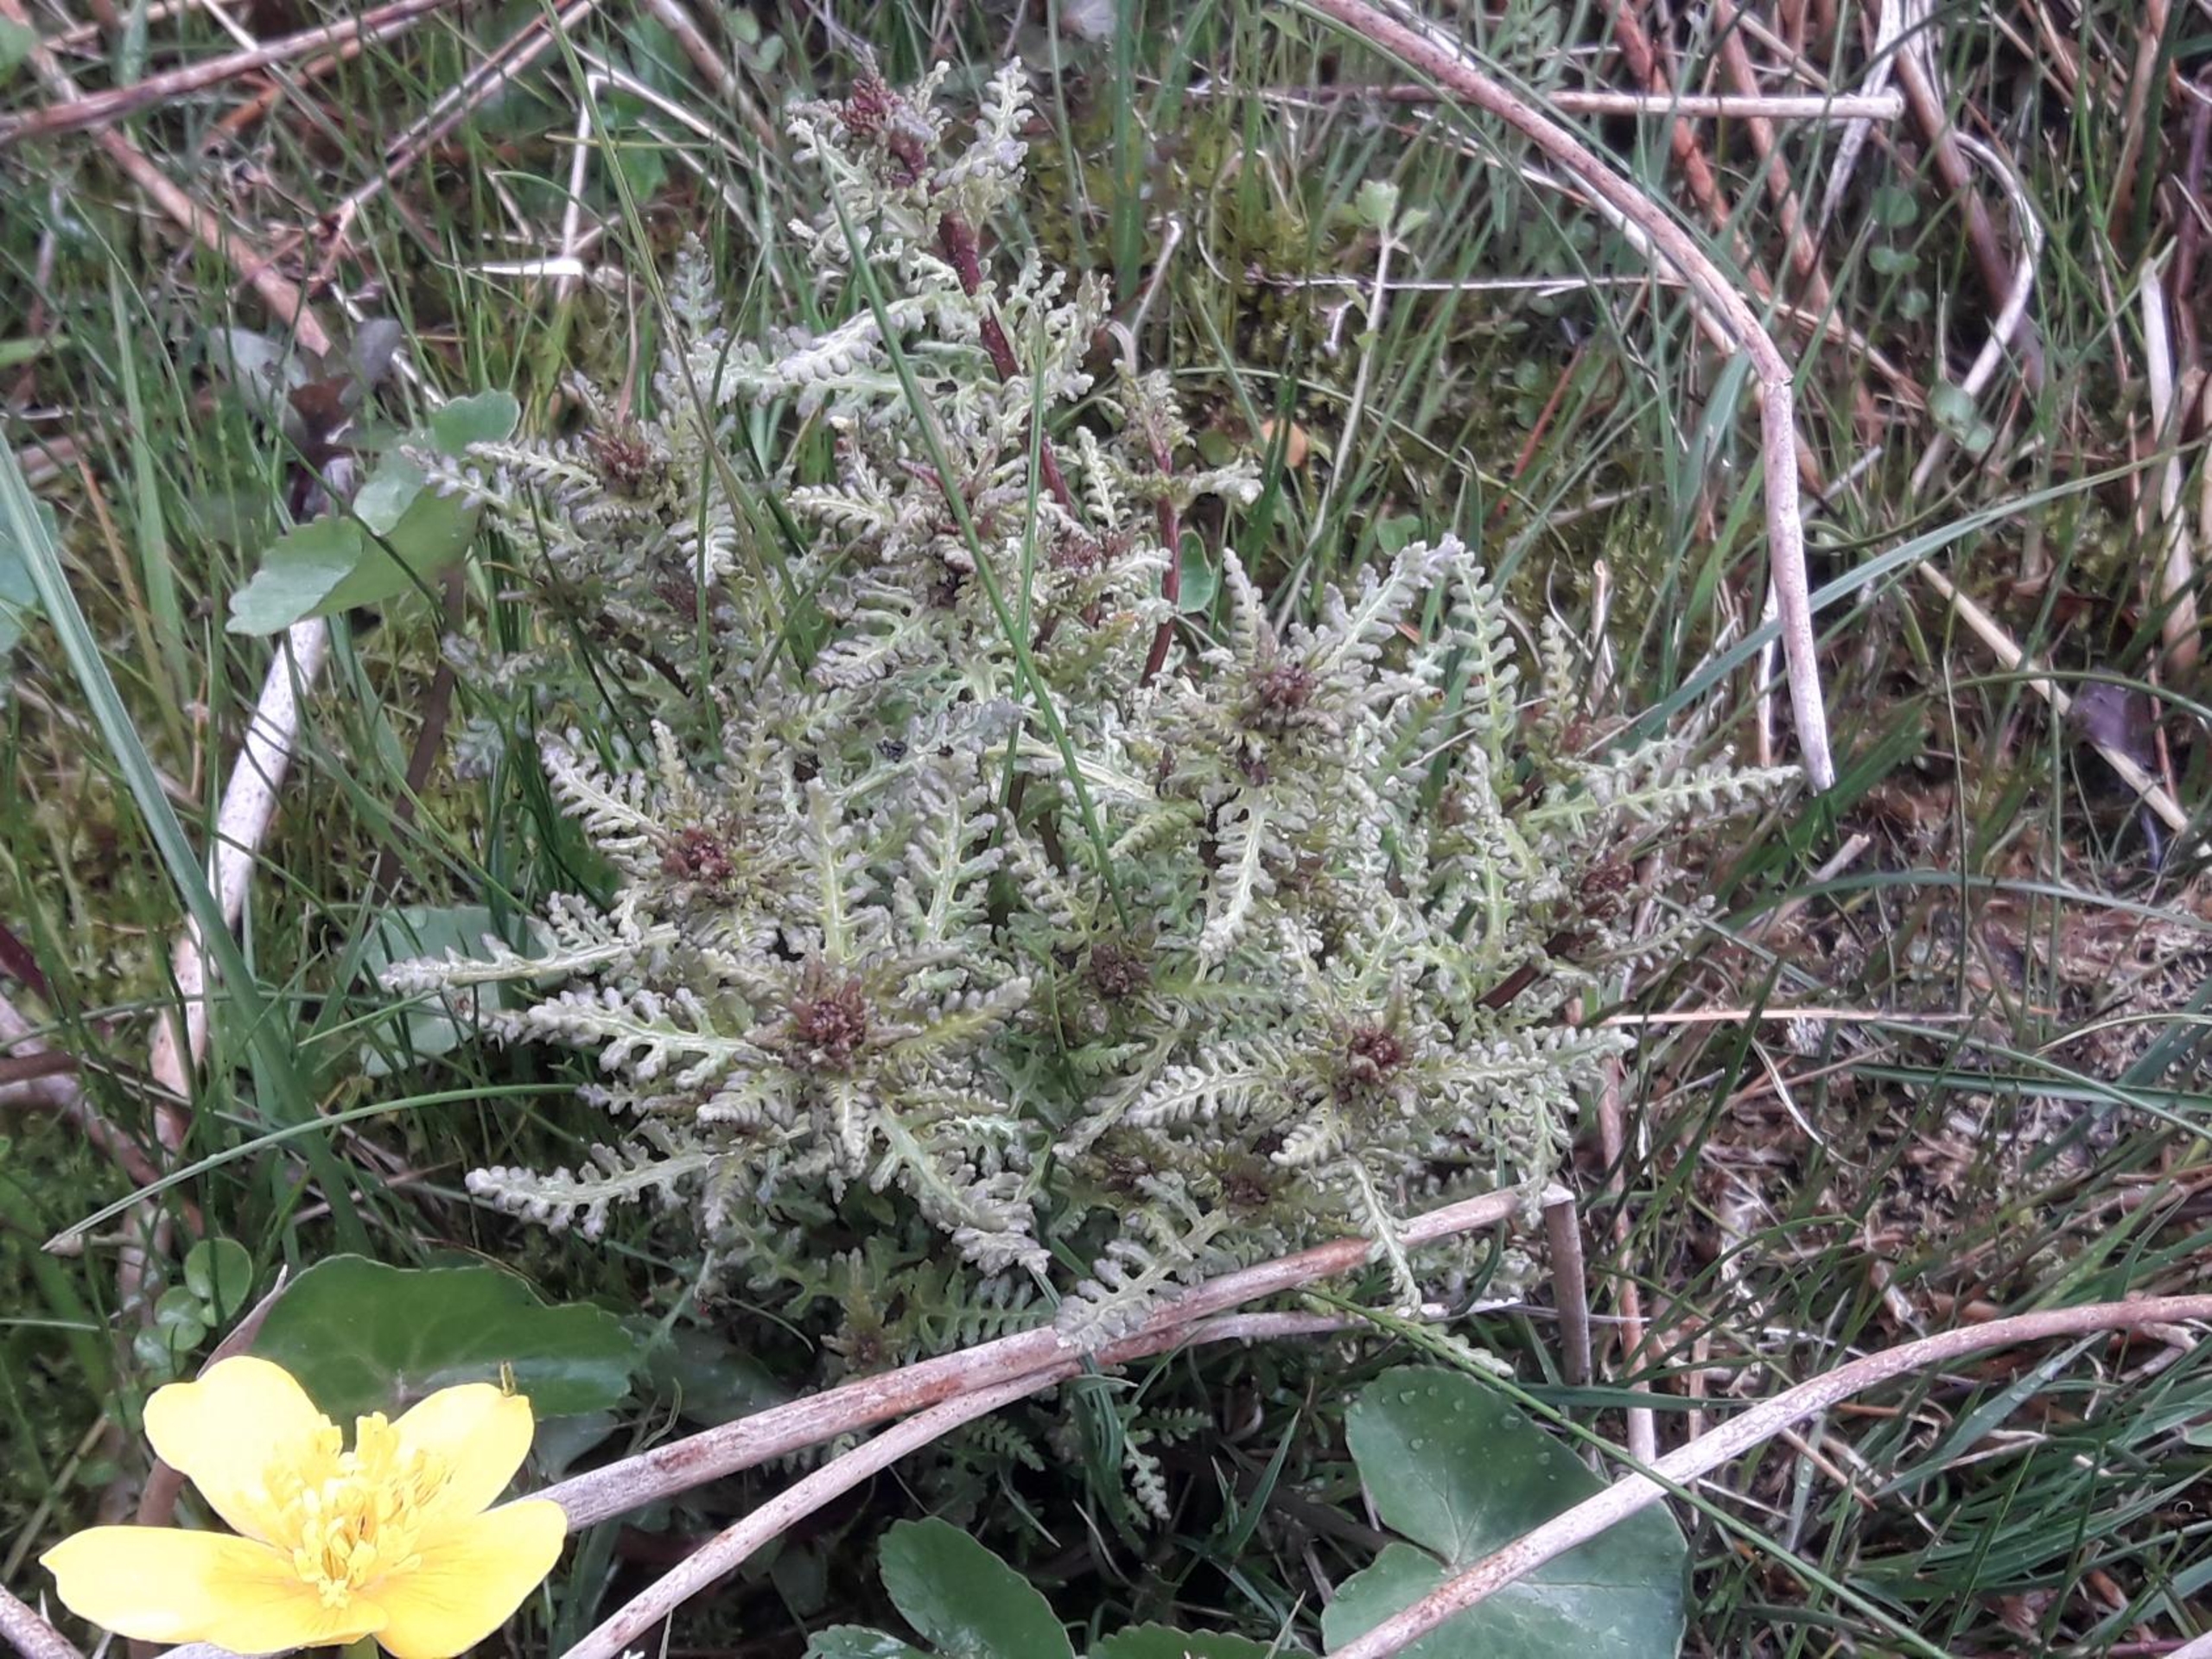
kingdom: Plantae
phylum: Tracheophyta
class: Magnoliopsida
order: Lamiales
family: Orobanchaceae
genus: Pedicularis
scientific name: Pedicularis palustris
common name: Eng-troldurt
